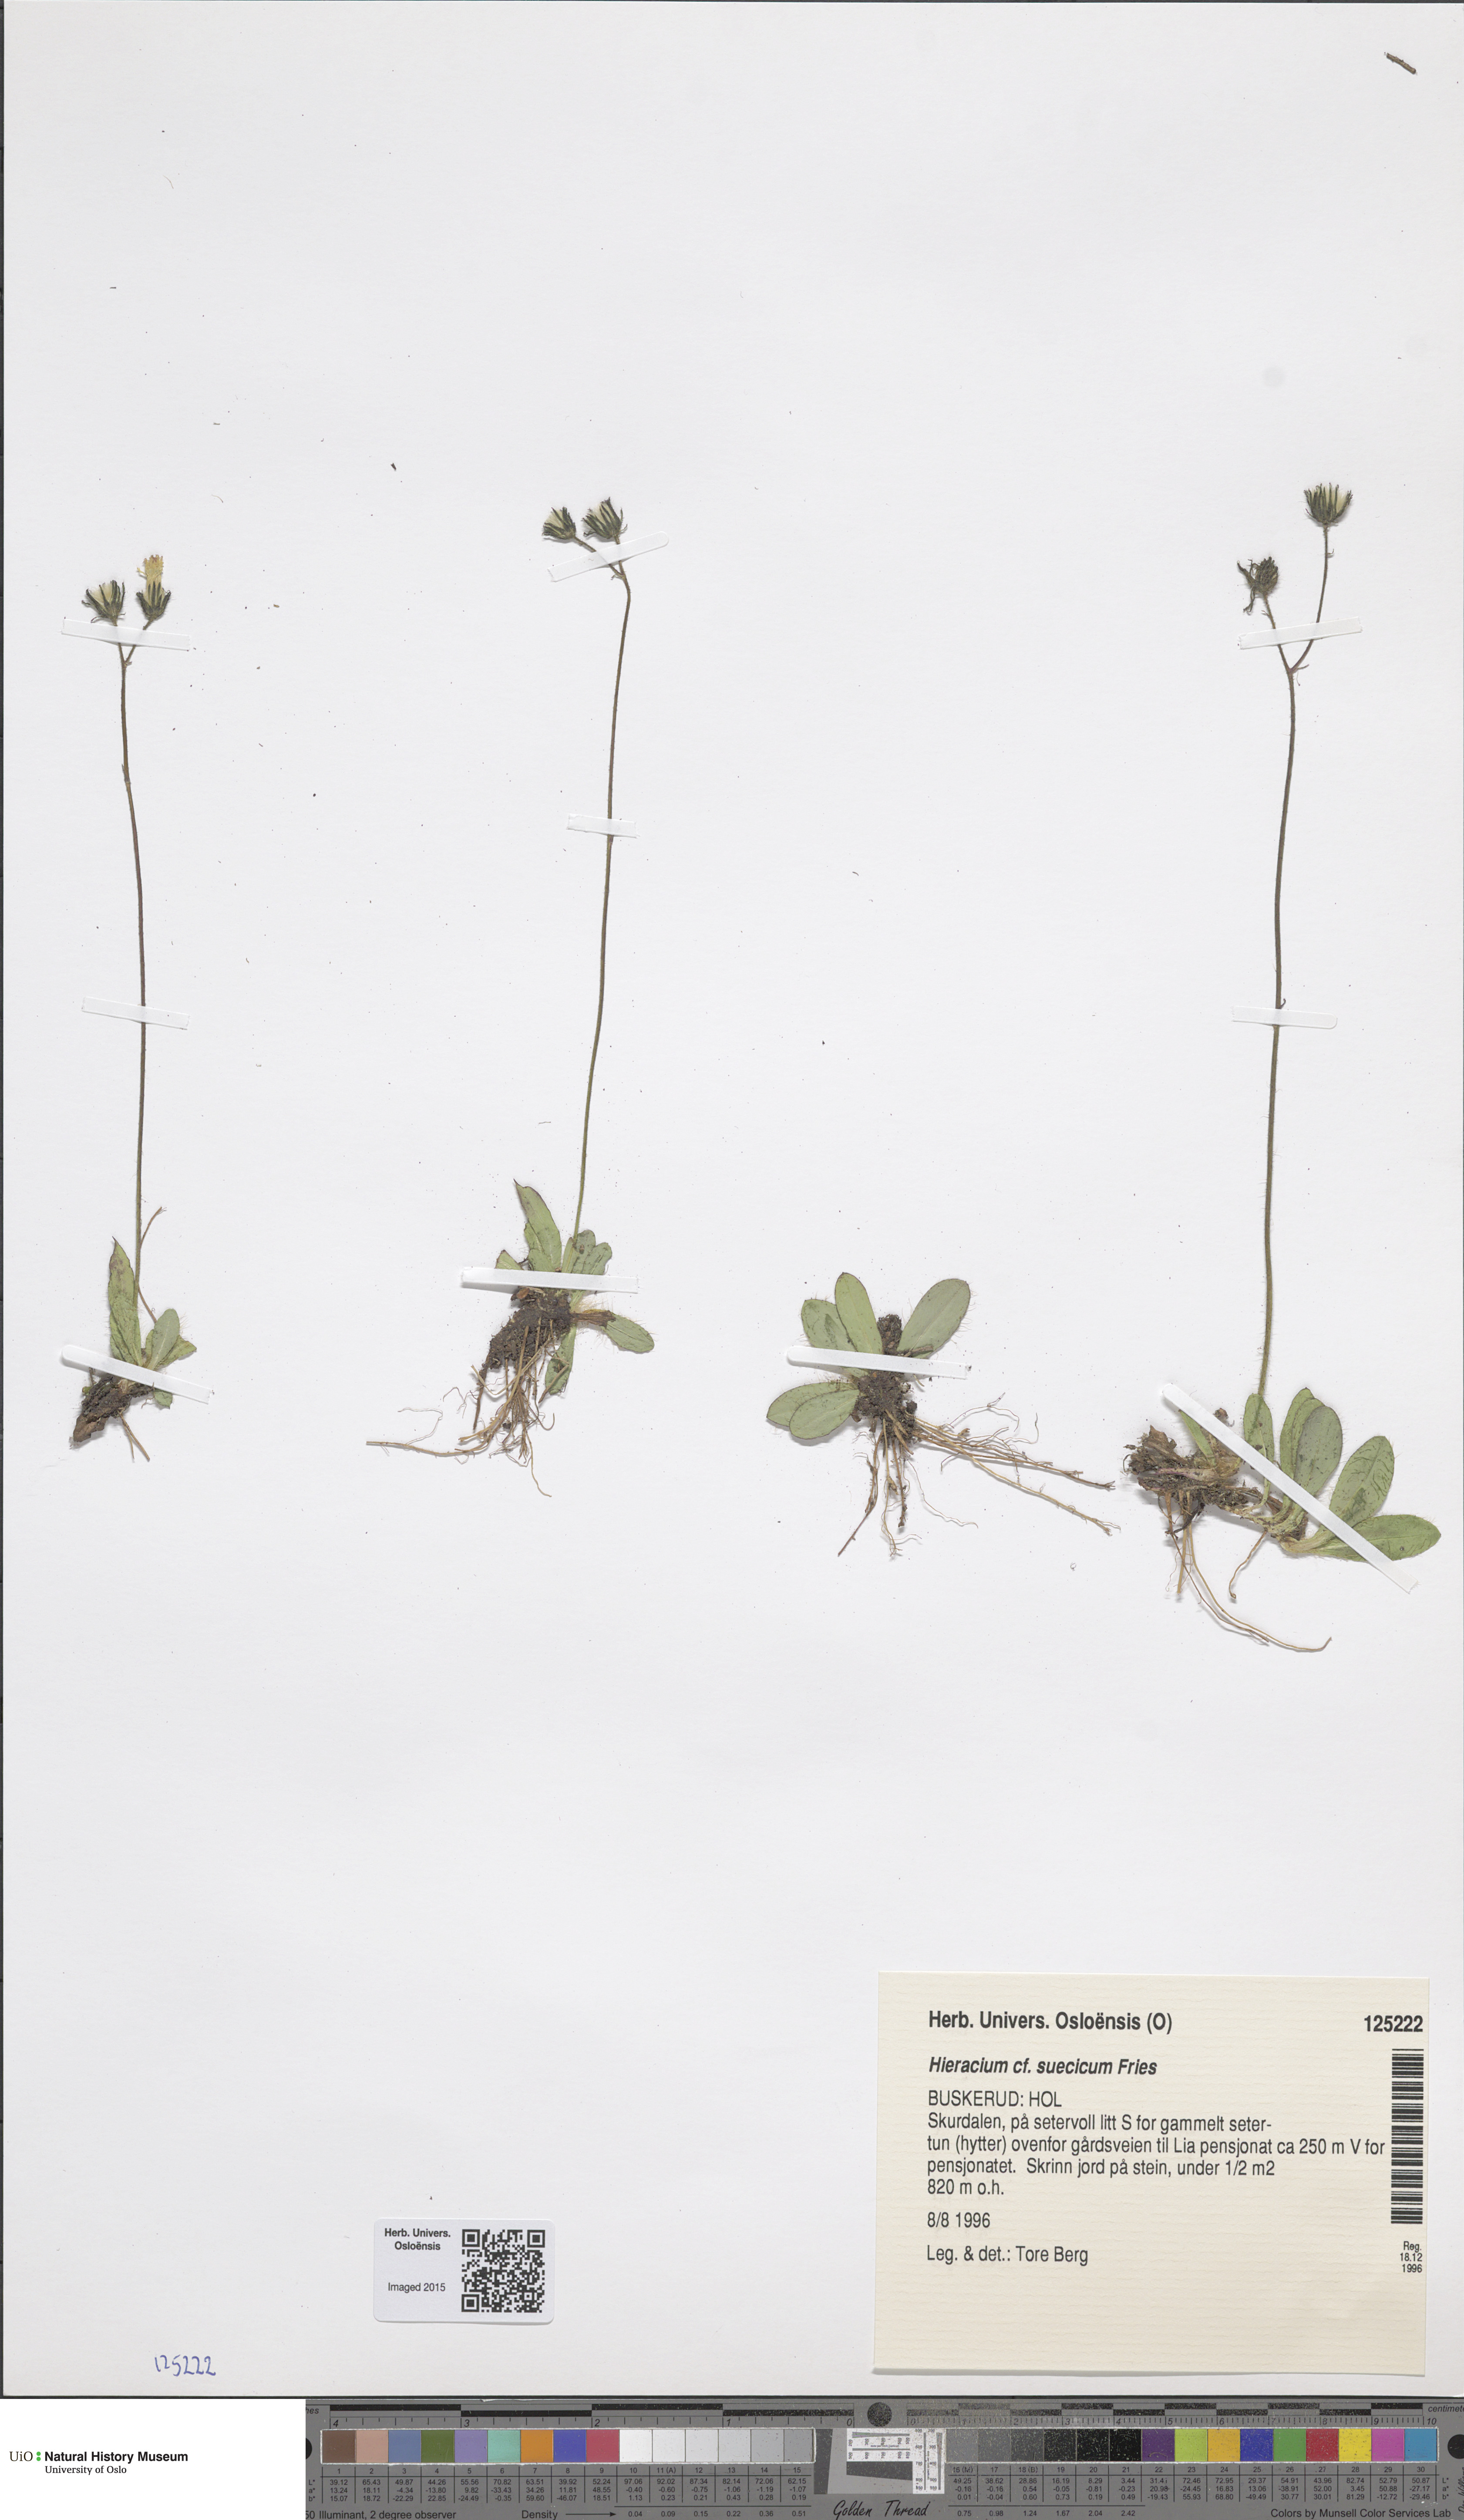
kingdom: Plantae
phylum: Tracheophyta
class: Magnoliopsida
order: Asterales
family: Asteraceae
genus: Pilosella
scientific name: Pilosella dubia
